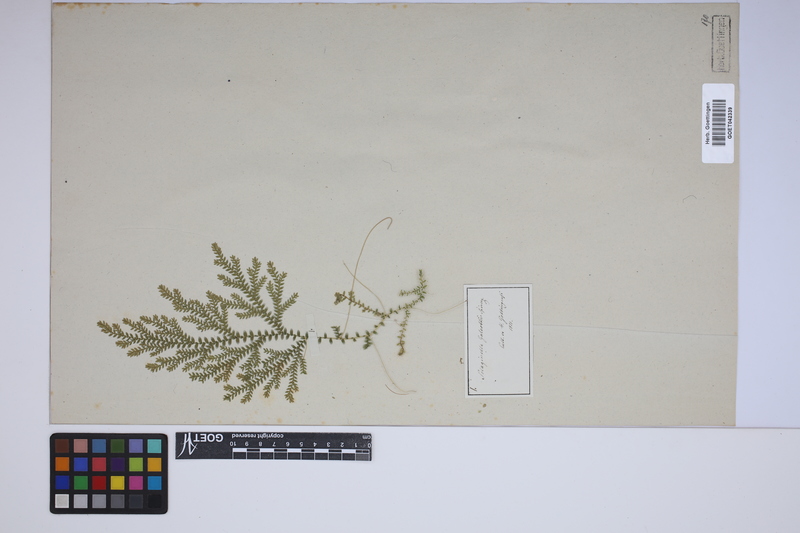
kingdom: Plantae
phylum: Tracheophyta
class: Lycopodiopsida
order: Selaginellales
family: Selaginellaceae
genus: Selaginella
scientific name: Selaginella stellata
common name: Starry spikemoss
